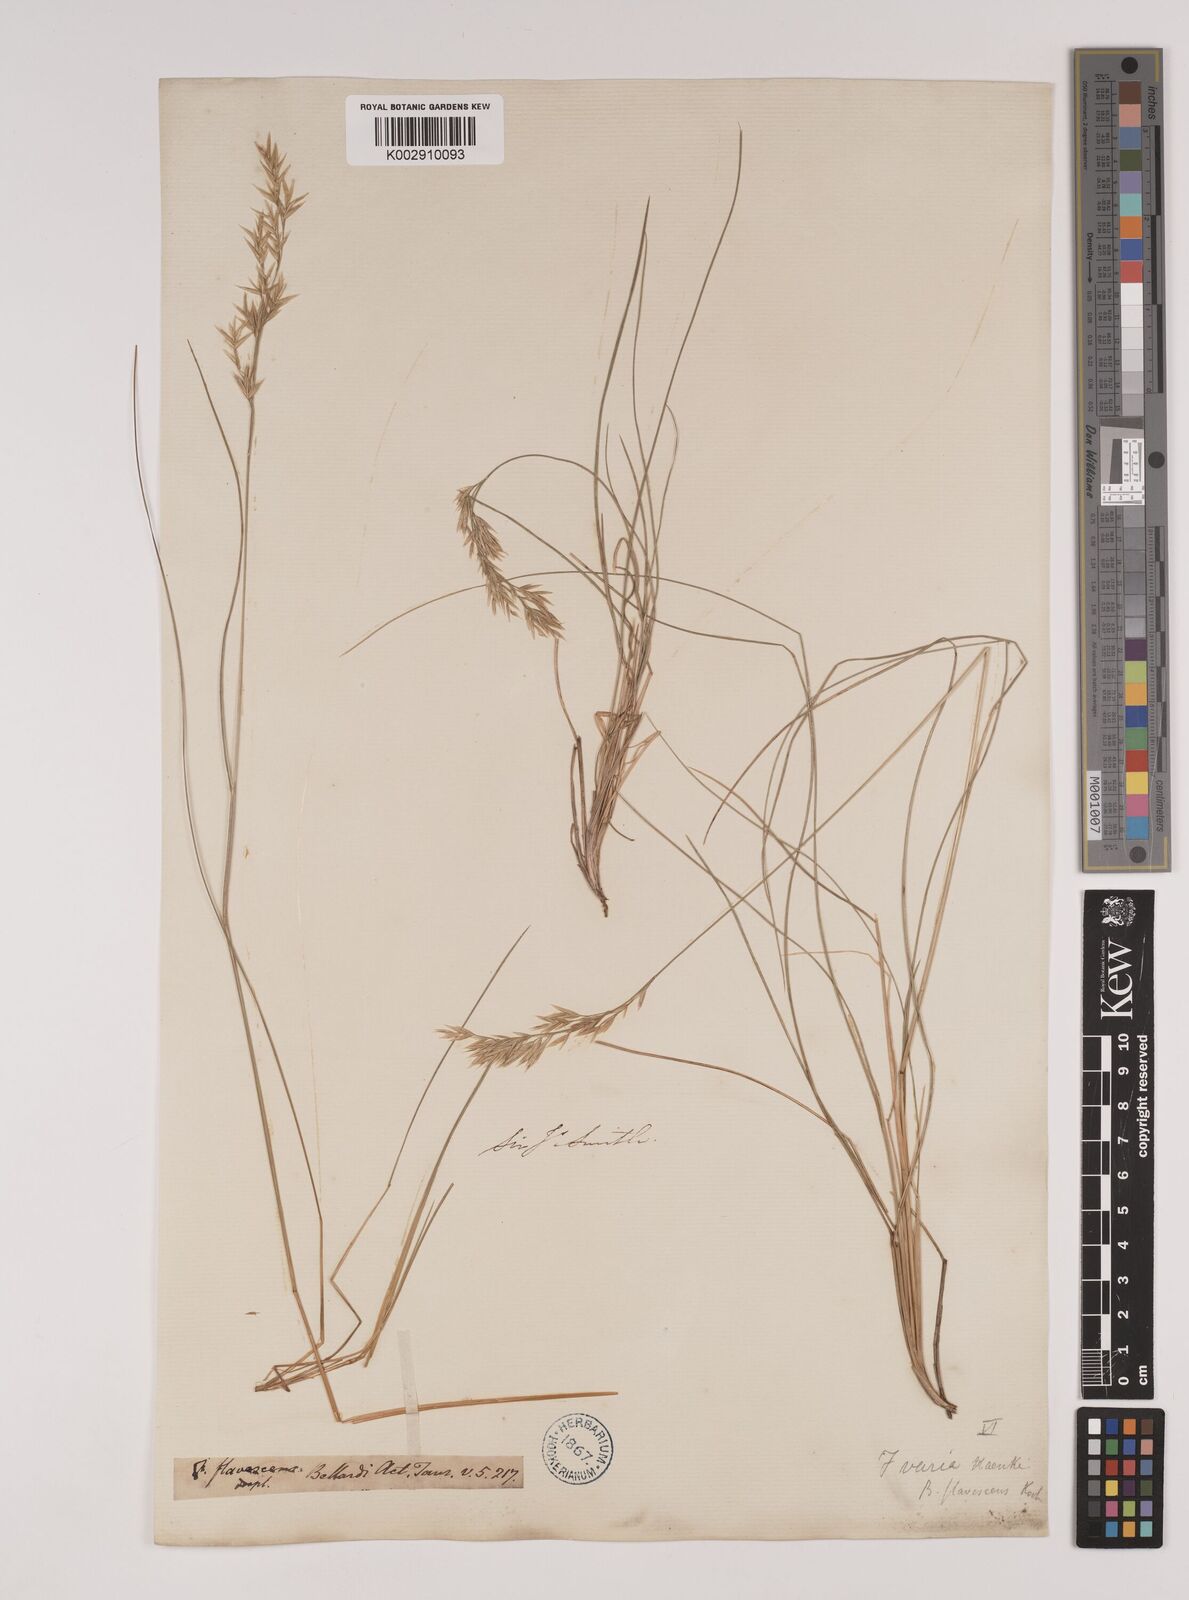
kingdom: Plantae
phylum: Tracheophyta
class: Liliopsida
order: Poales
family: Poaceae
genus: Festuca
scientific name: Festuca flavescens
